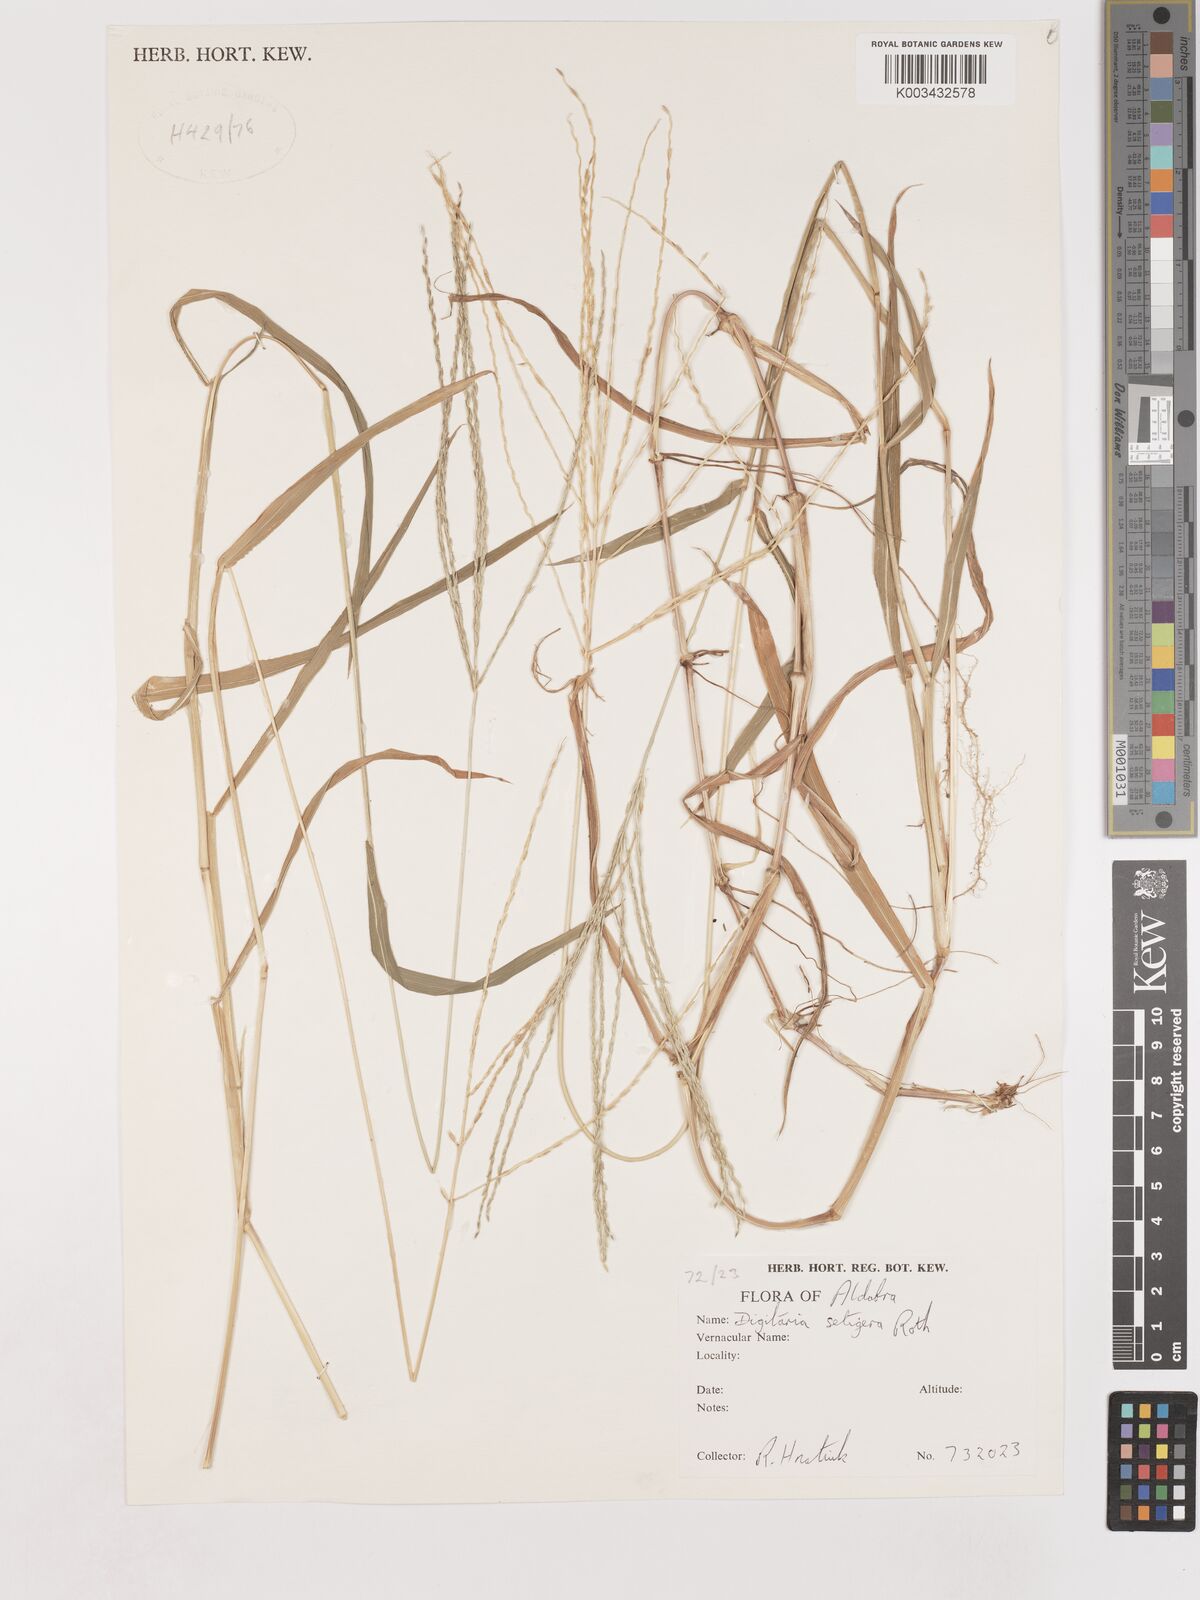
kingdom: Plantae
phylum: Tracheophyta
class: Liliopsida
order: Poales
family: Poaceae
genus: Digitaria
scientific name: Digitaria setigera
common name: East indian crabgrass
